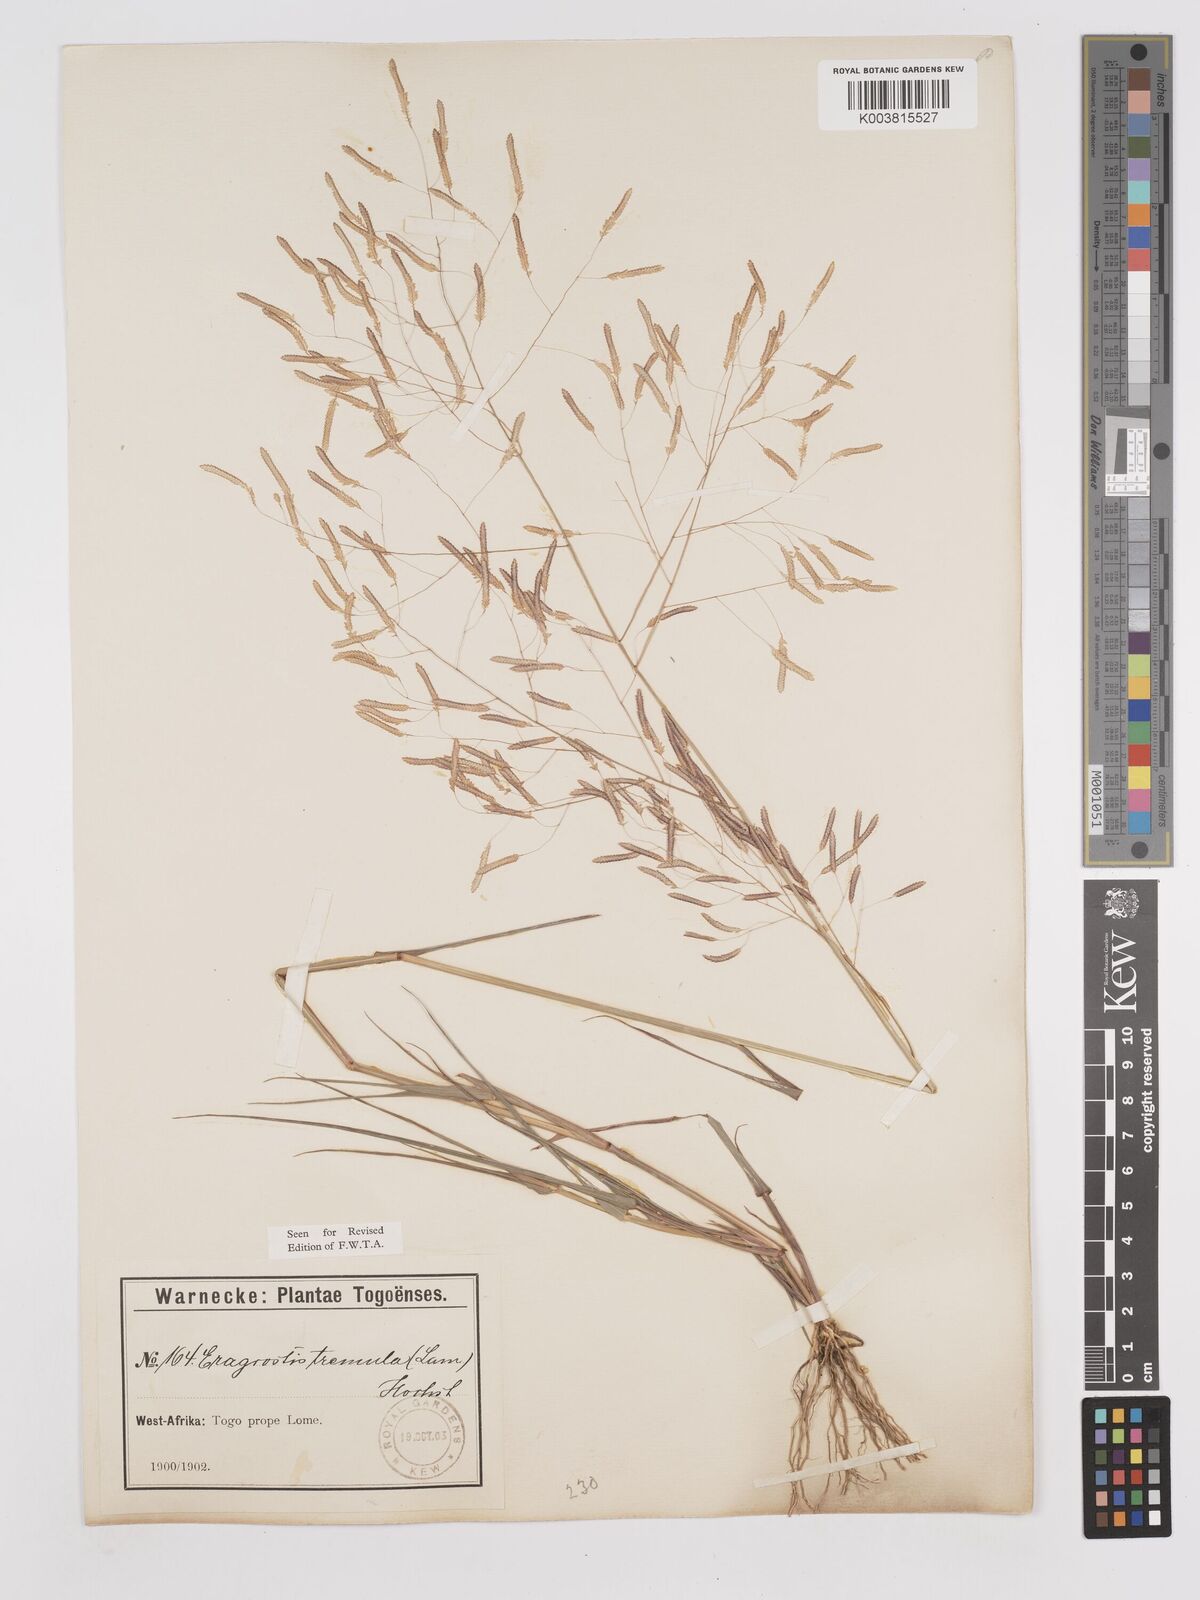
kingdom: Plantae
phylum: Tracheophyta
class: Liliopsida
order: Poales
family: Poaceae
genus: Eragrostis
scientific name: Eragrostis tremula
